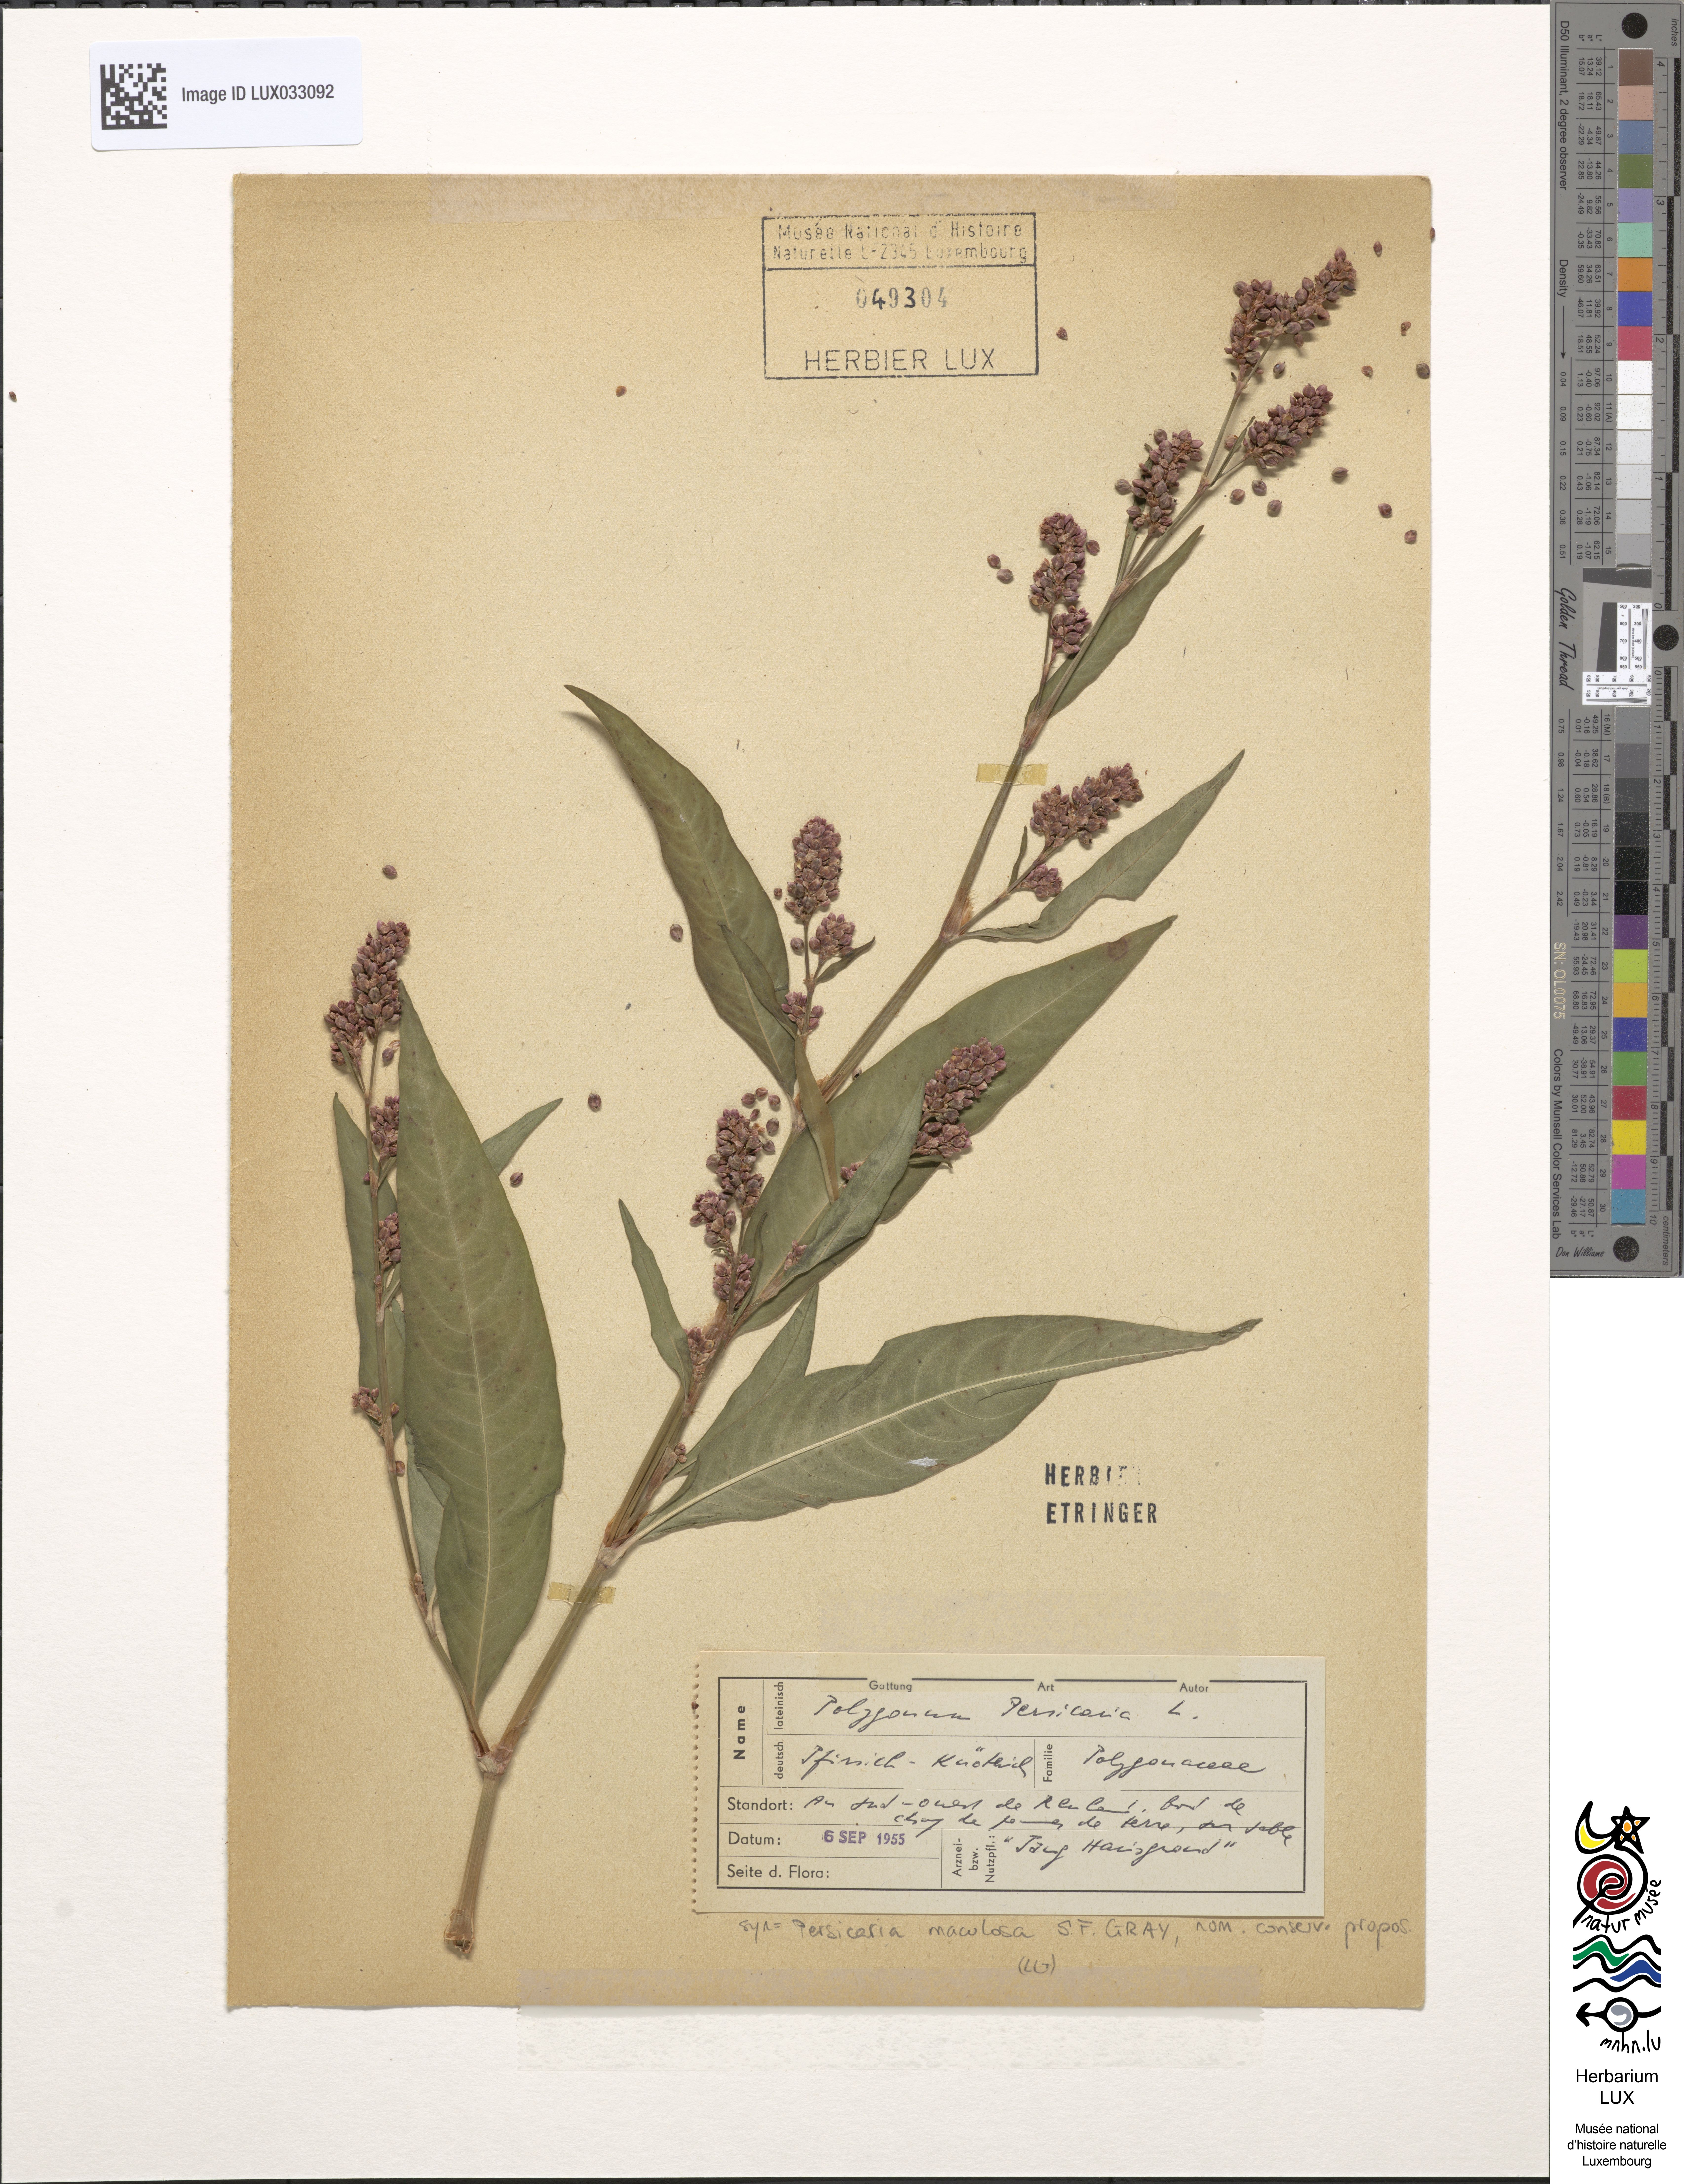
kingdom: Plantae
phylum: Tracheophyta
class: Magnoliopsida
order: Caryophyllales
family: Polygonaceae
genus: Persicaria
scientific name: Persicaria maculosa
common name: Redshank
